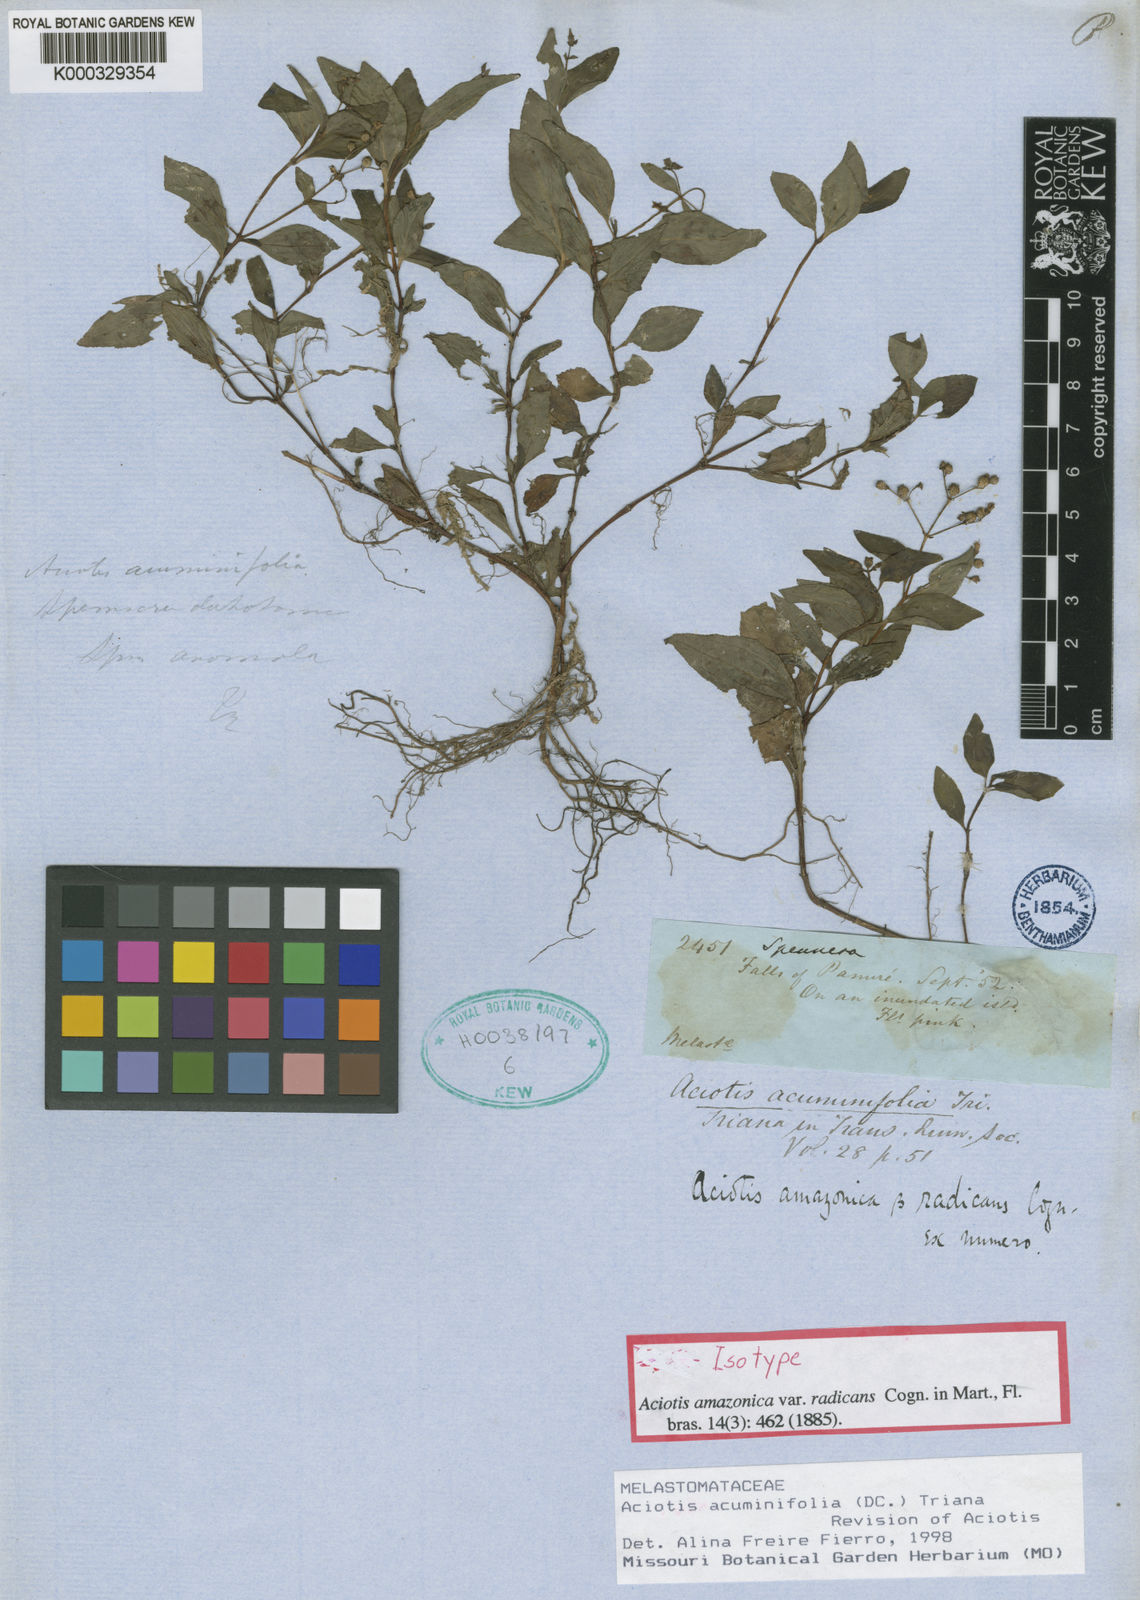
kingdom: Plantae
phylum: Tracheophyta
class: Magnoliopsida
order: Myrtales
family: Melastomataceae
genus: Aciotis
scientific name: Aciotis acuminifolia
